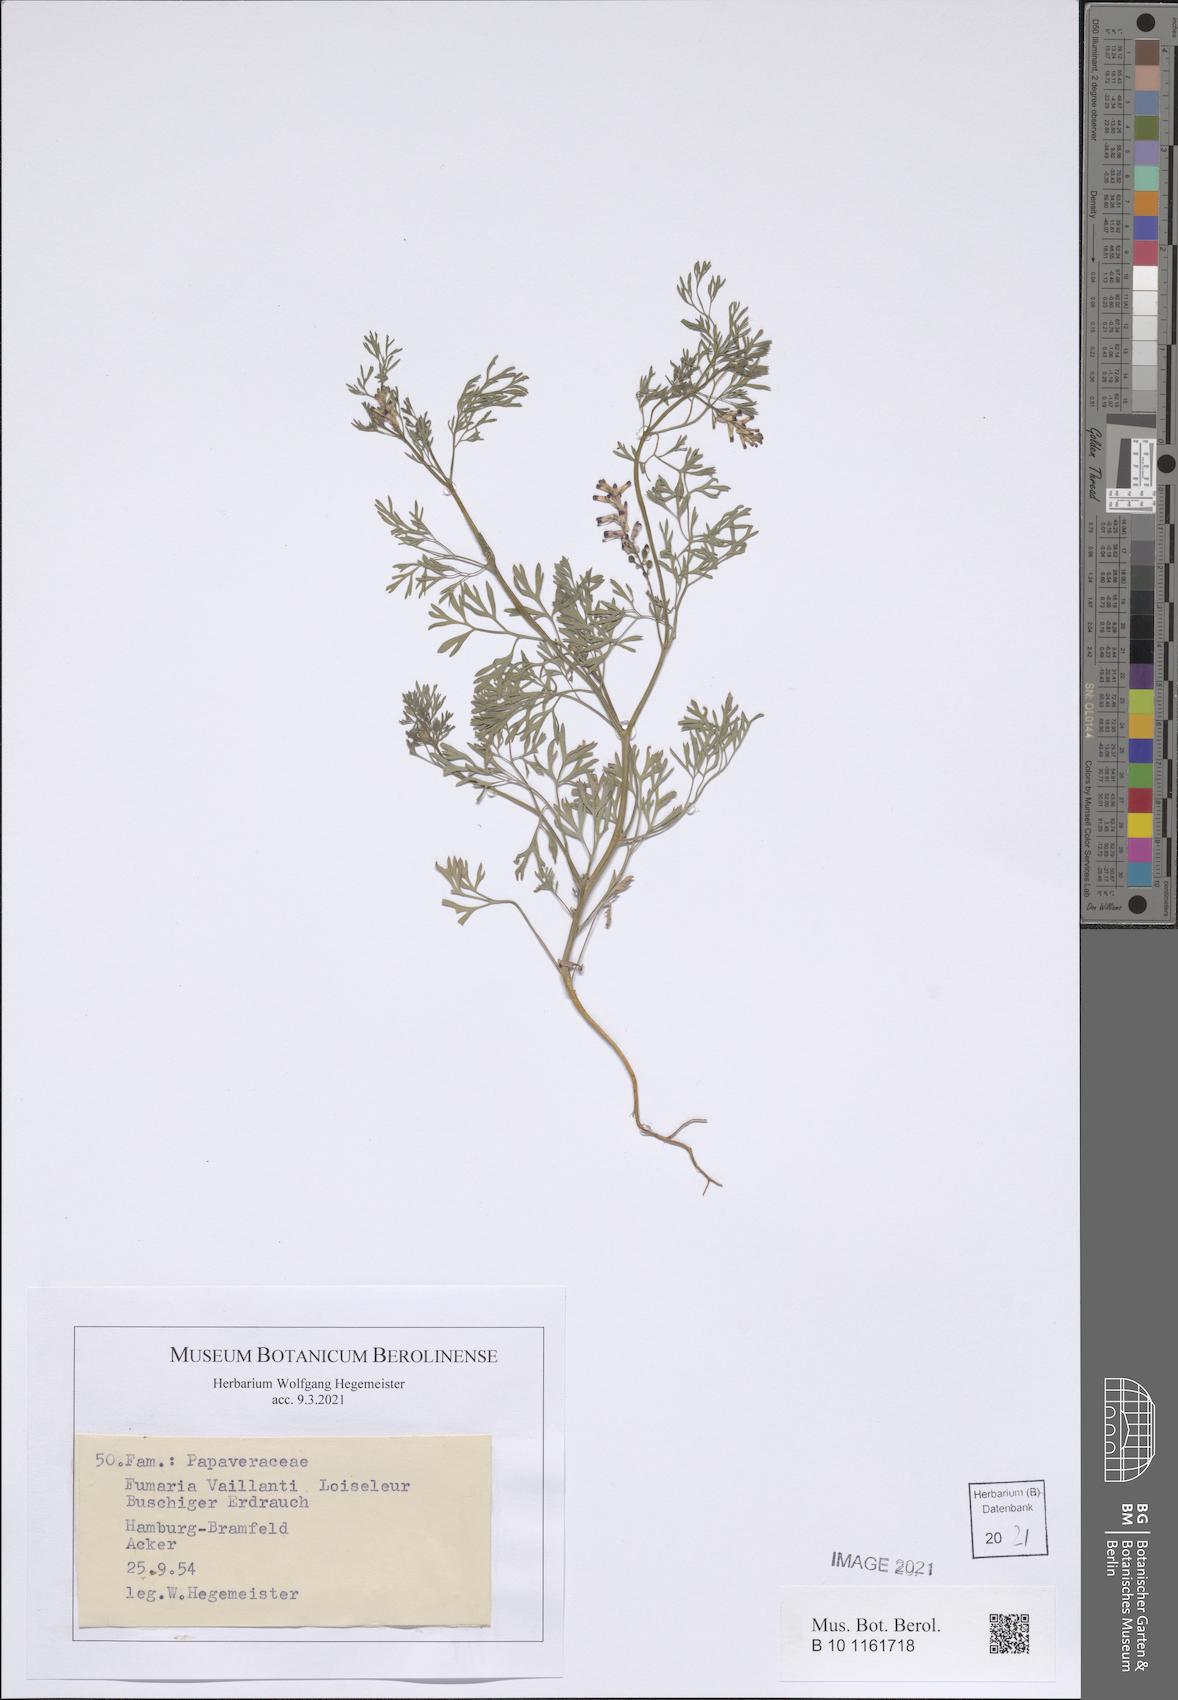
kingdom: Plantae
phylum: Tracheophyta
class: Magnoliopsida
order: Ranunculales
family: Papaveraceae
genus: Fumaria
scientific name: Fumaria vaillantii
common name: Few-flowered fumitory
